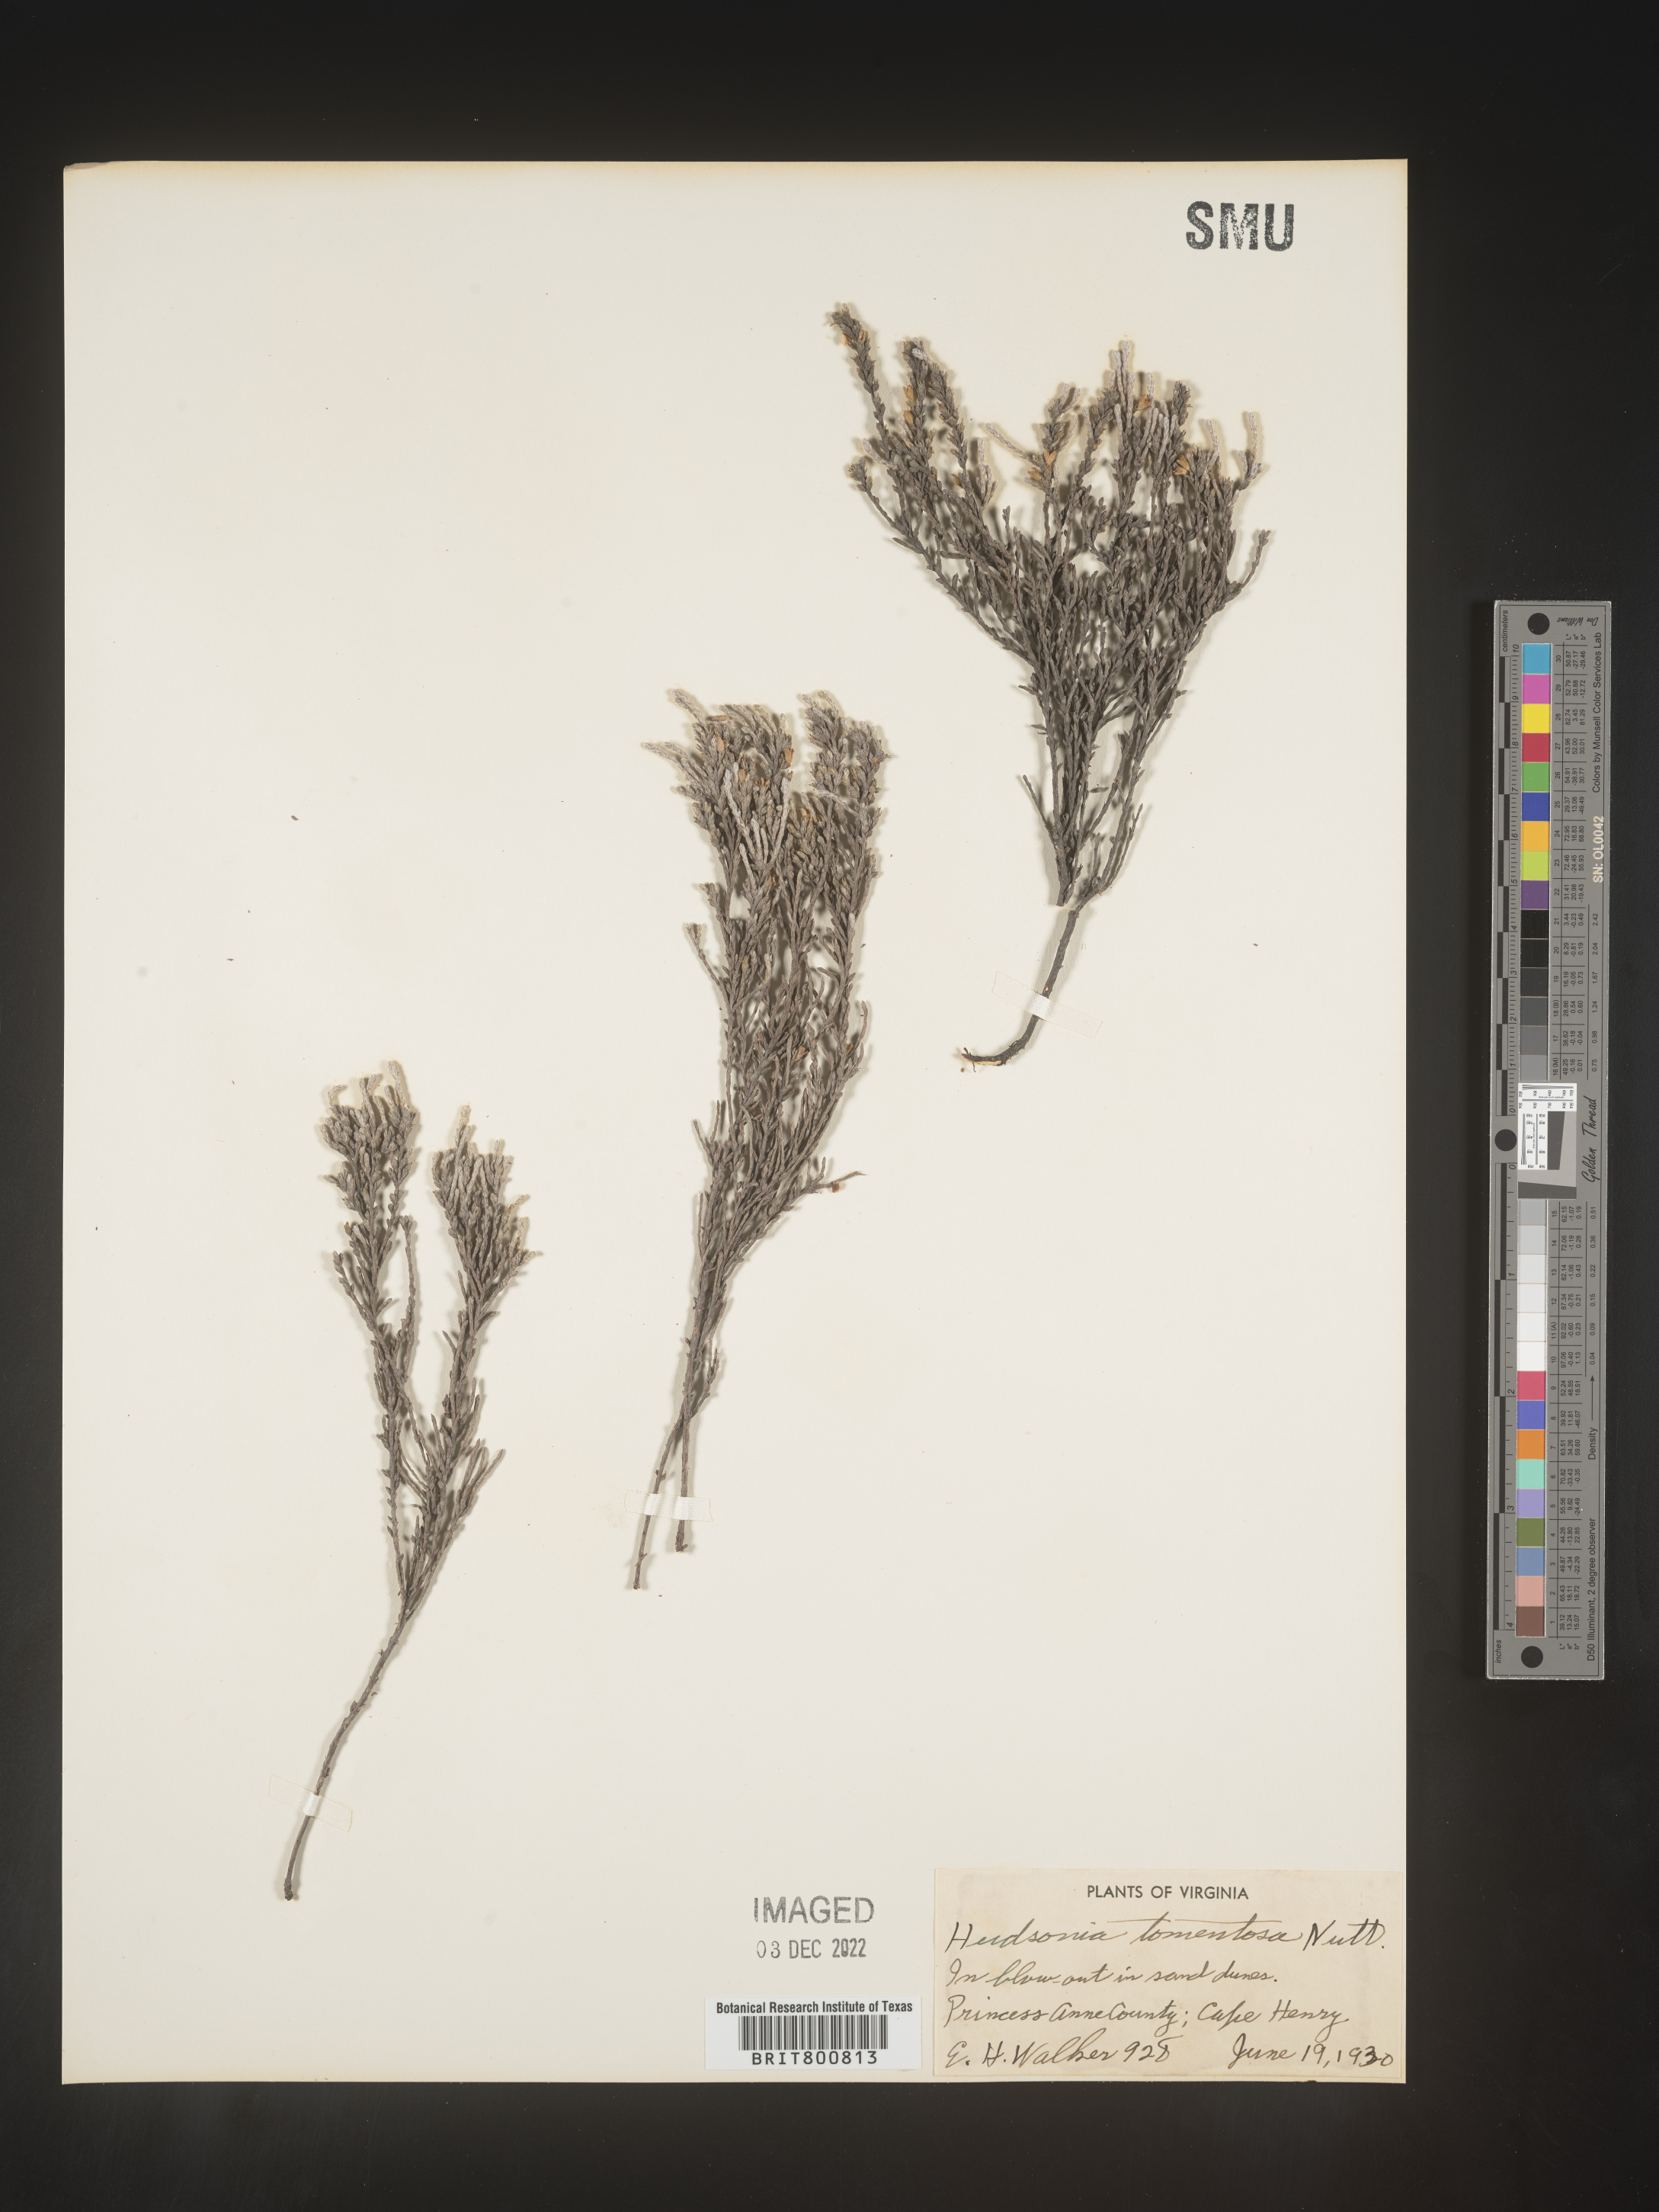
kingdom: Plantae
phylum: Tracheophyta
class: Magnoliopsida
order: Malvales
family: Cistaceae
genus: Hudsonia
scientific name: Hudsonia tomentosa
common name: Beach-heath
